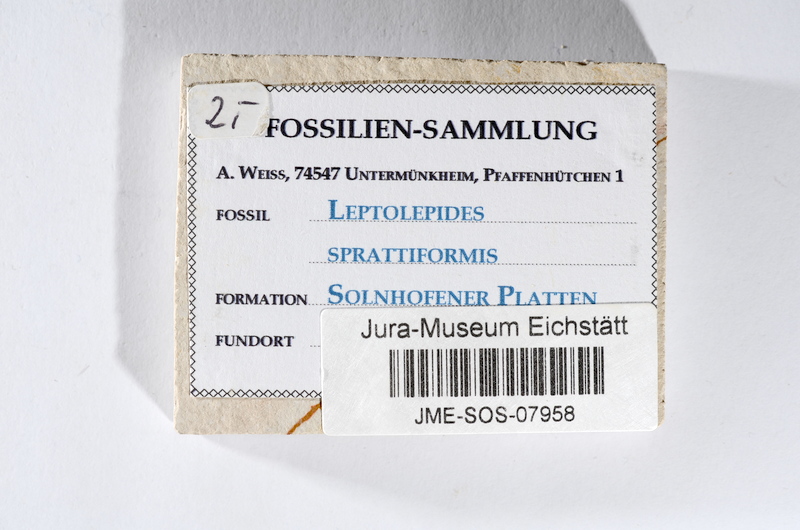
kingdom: Animalia
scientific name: Animalia
